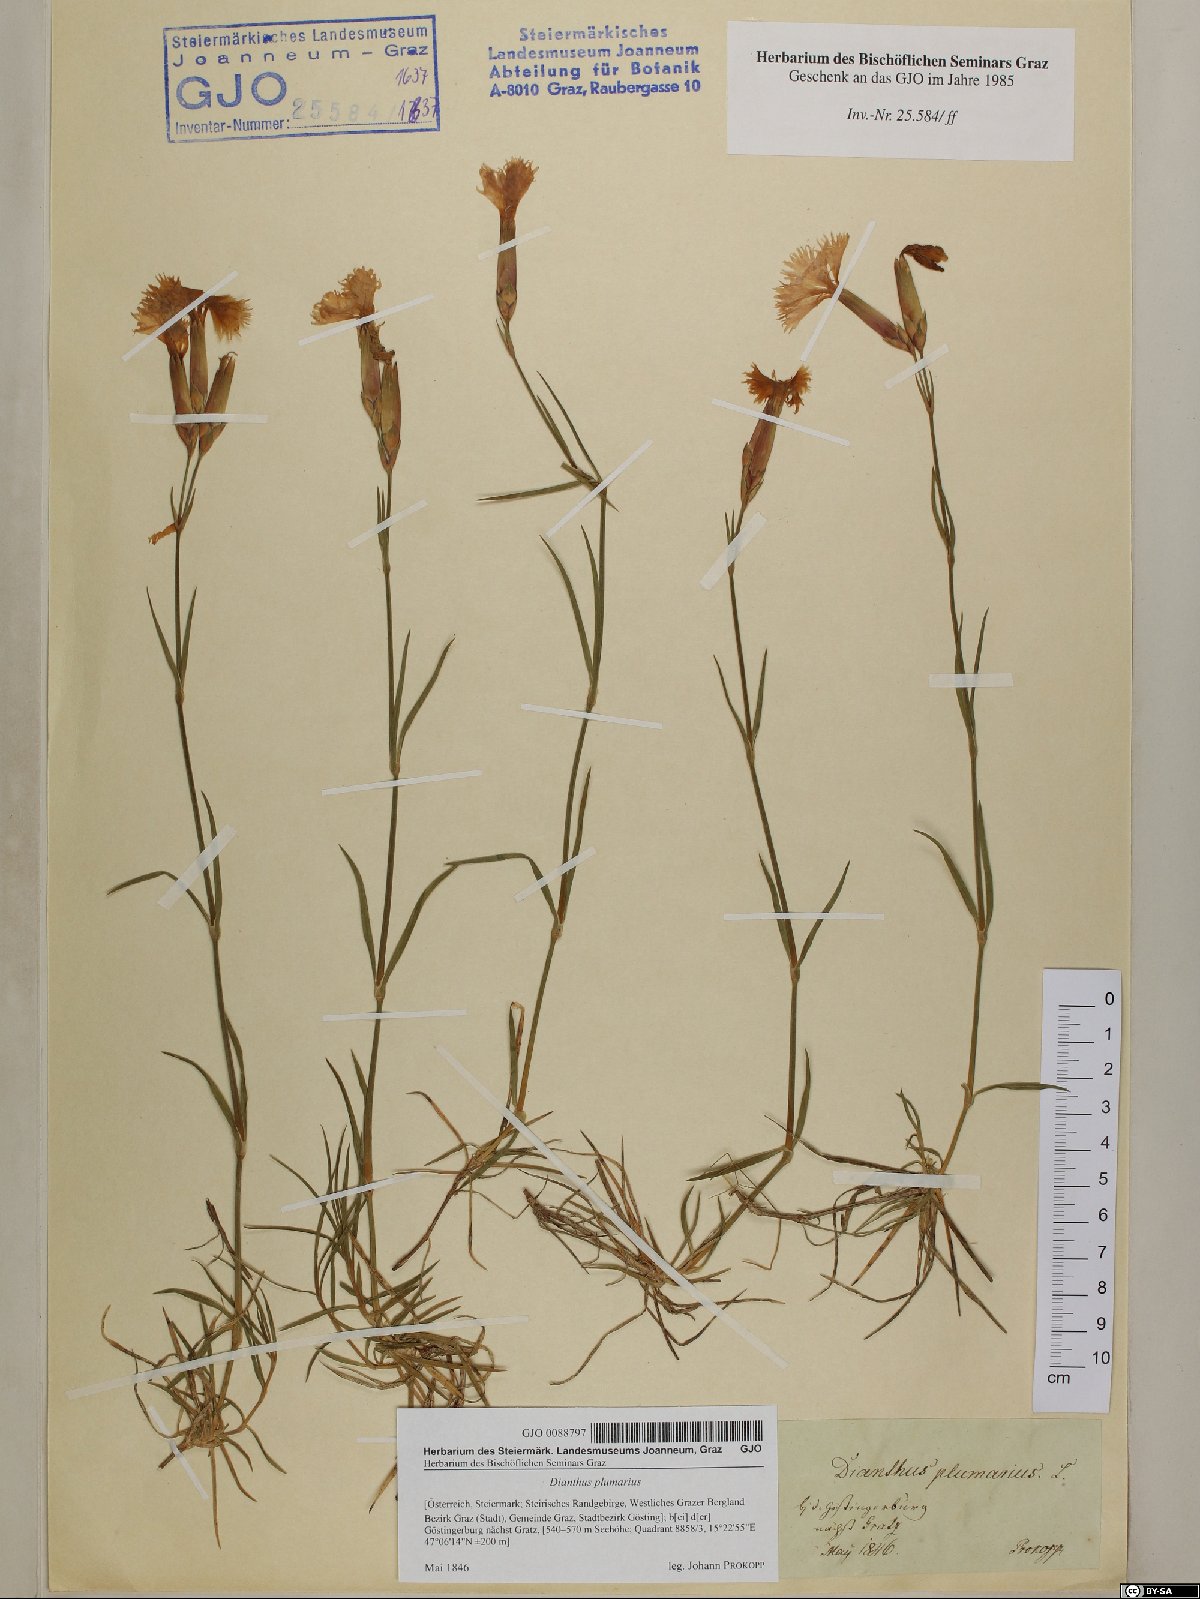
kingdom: Plantae
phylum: Tracheophyta
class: Magnoliopsida
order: Caryophyllales
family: Caryophyllaceae
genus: Dianthus
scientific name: Dianthus plumarius
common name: Pink
